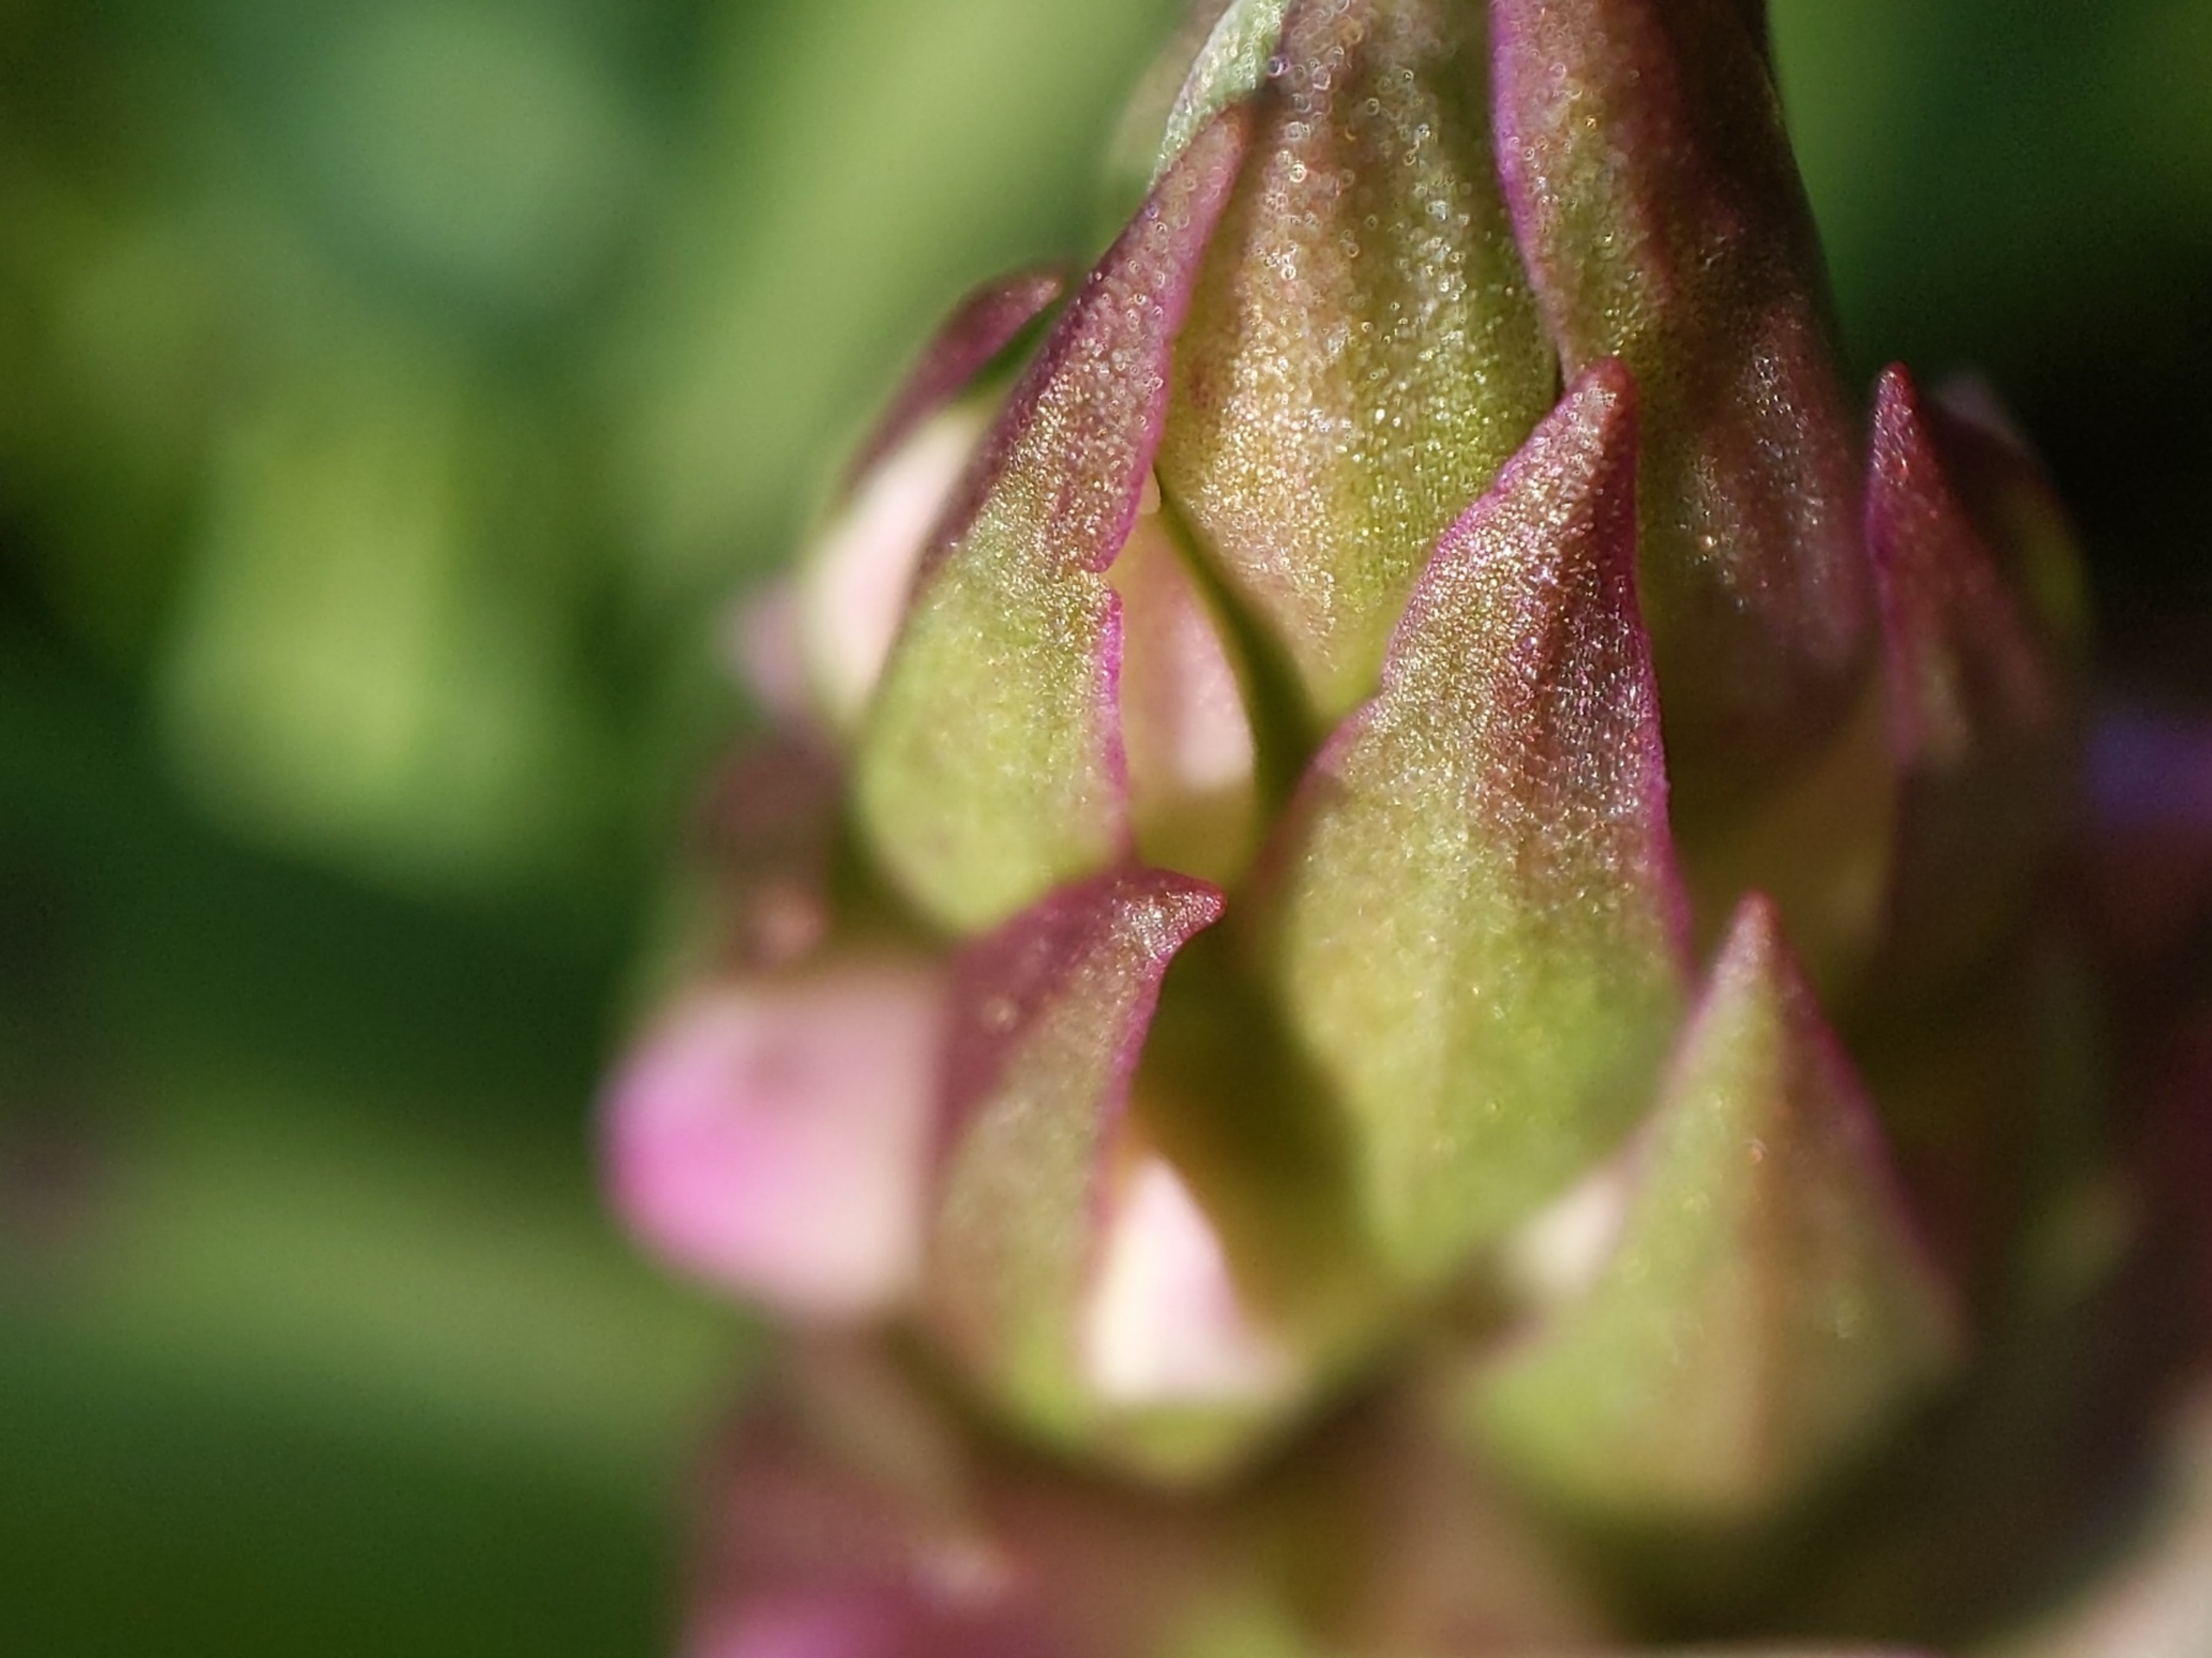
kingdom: Plantae
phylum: Tracheophyta
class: Liliopsida
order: Asparagales
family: Orchidaceae
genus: Dactylorhiza
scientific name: Dactylorhiza majalis
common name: Maj-gøgeurt
